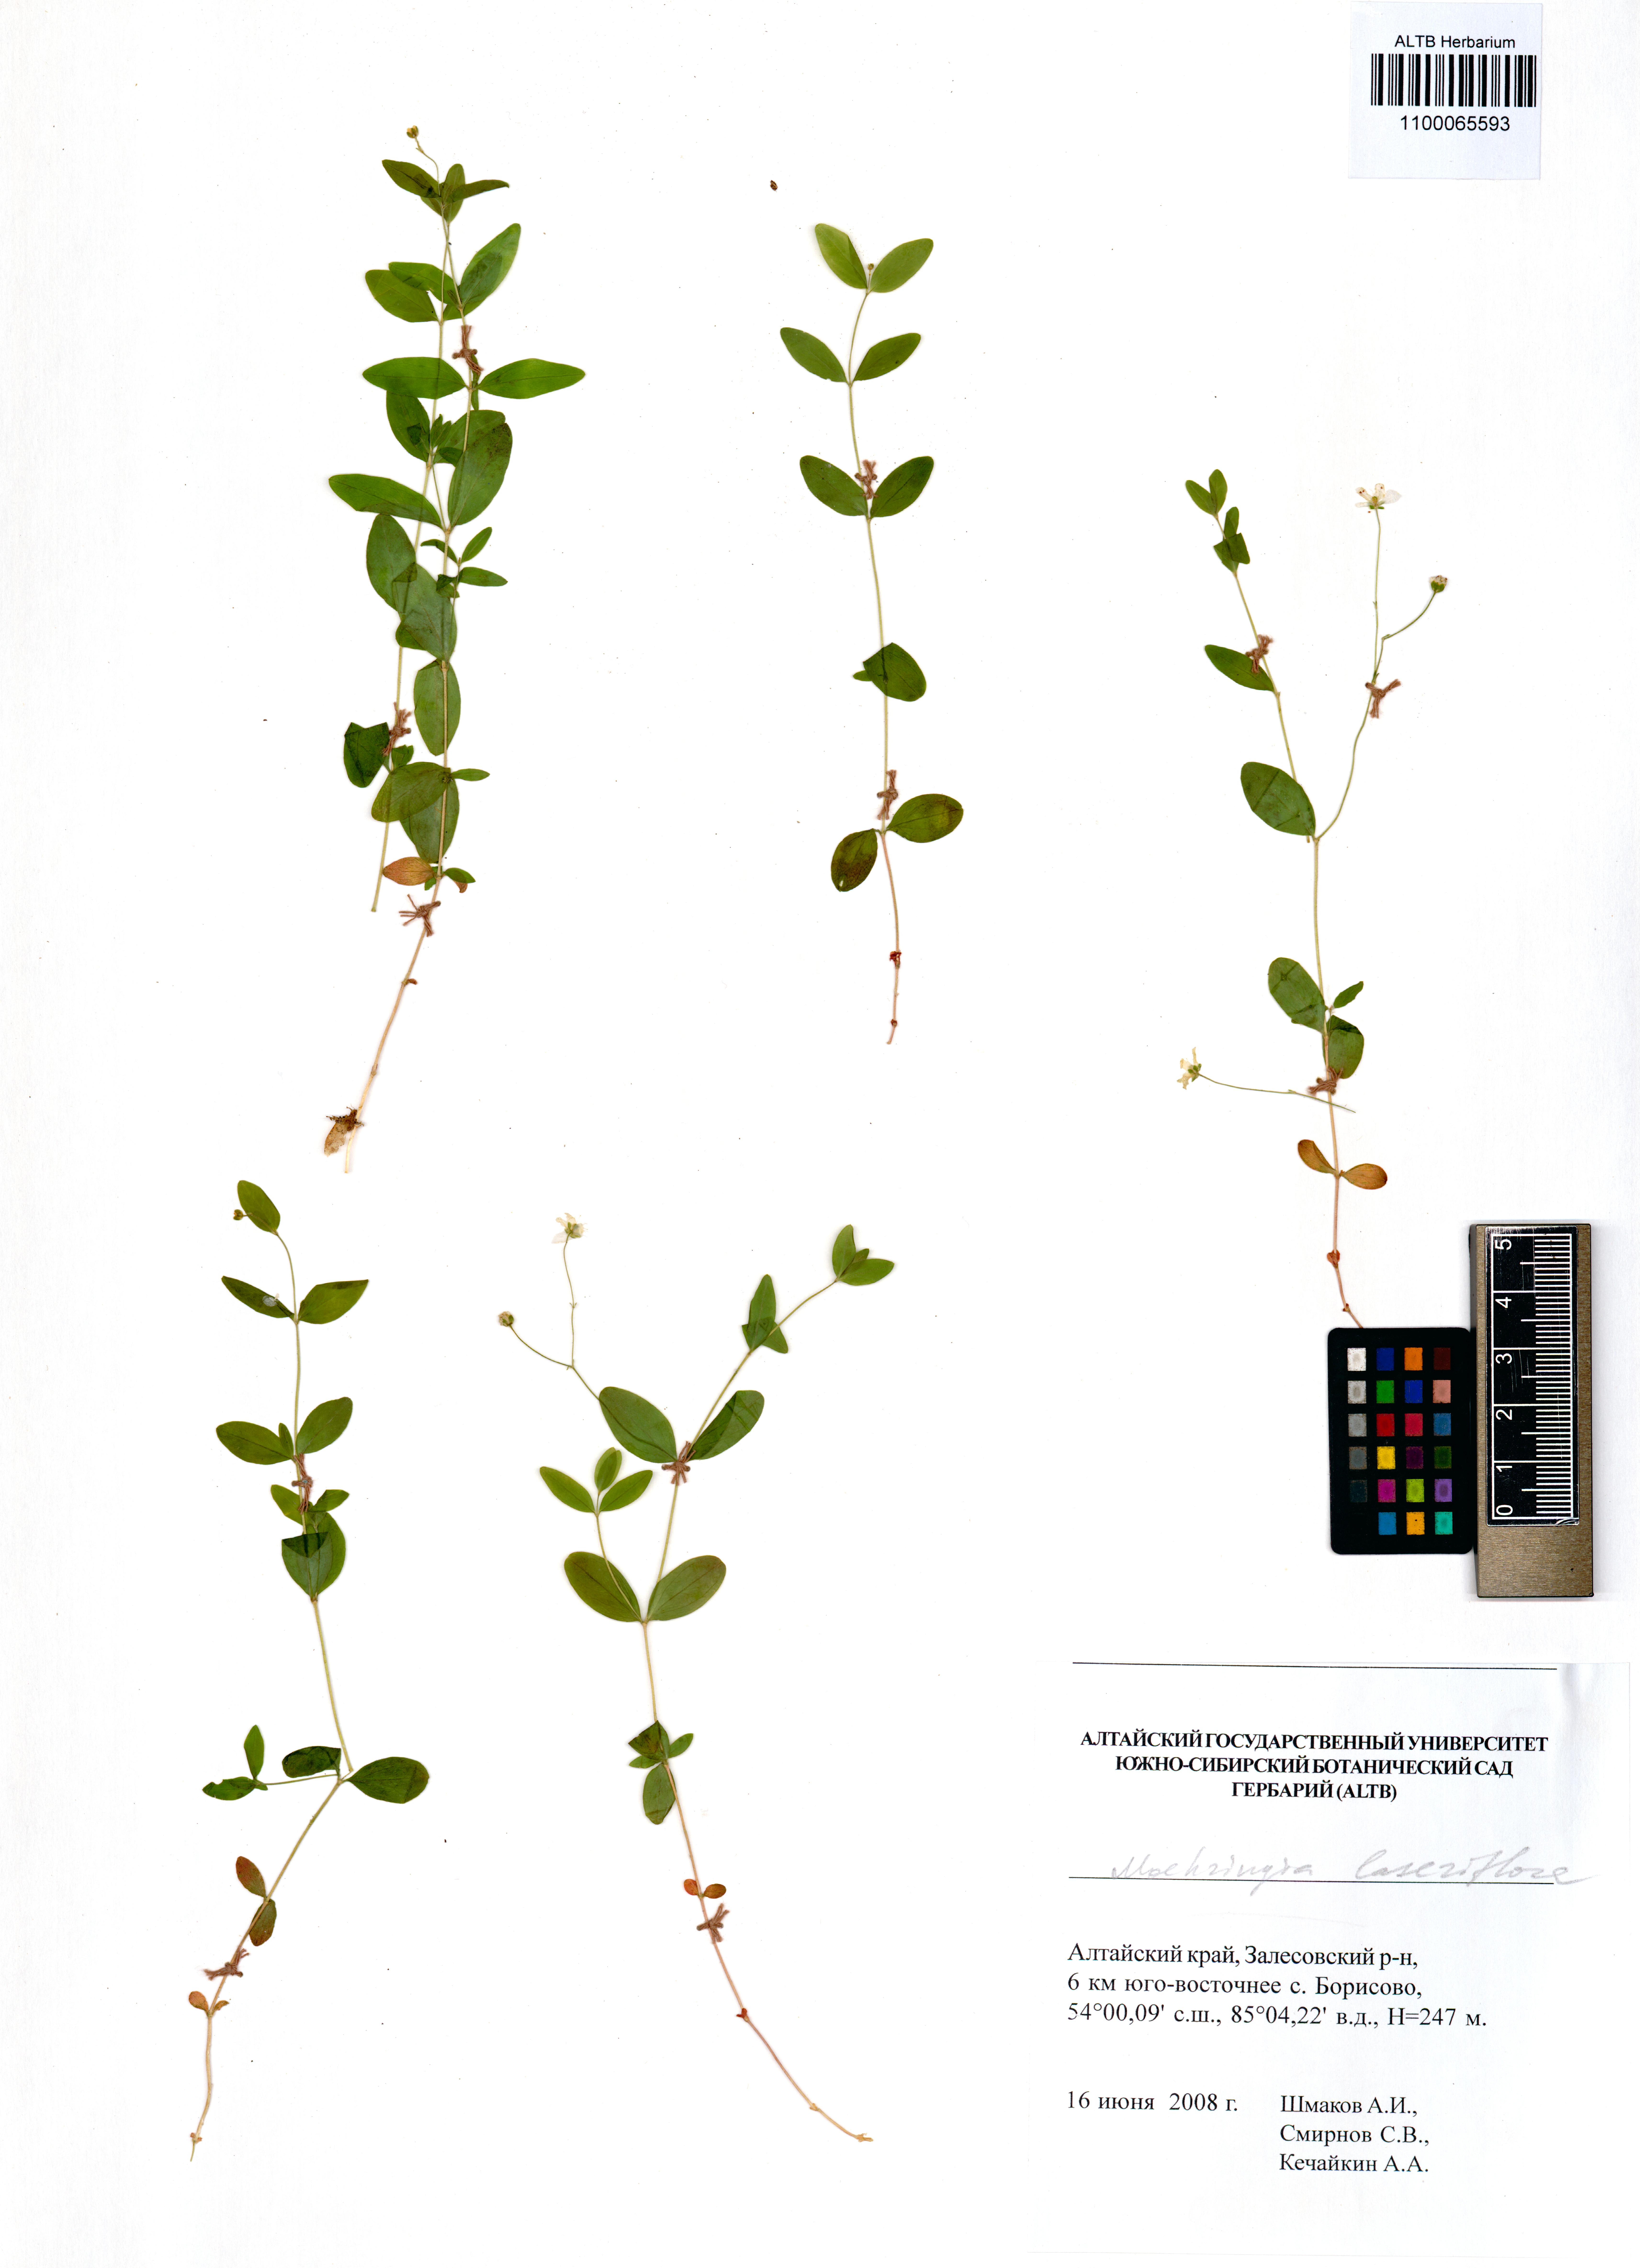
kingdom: Plantae
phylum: Tracheophyta
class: Magnoliopsida
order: Caryophyllales
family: Caryophyllaceae
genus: Moehringia
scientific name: Moehringia lateriflora
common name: Blunt-leaved sandwort
